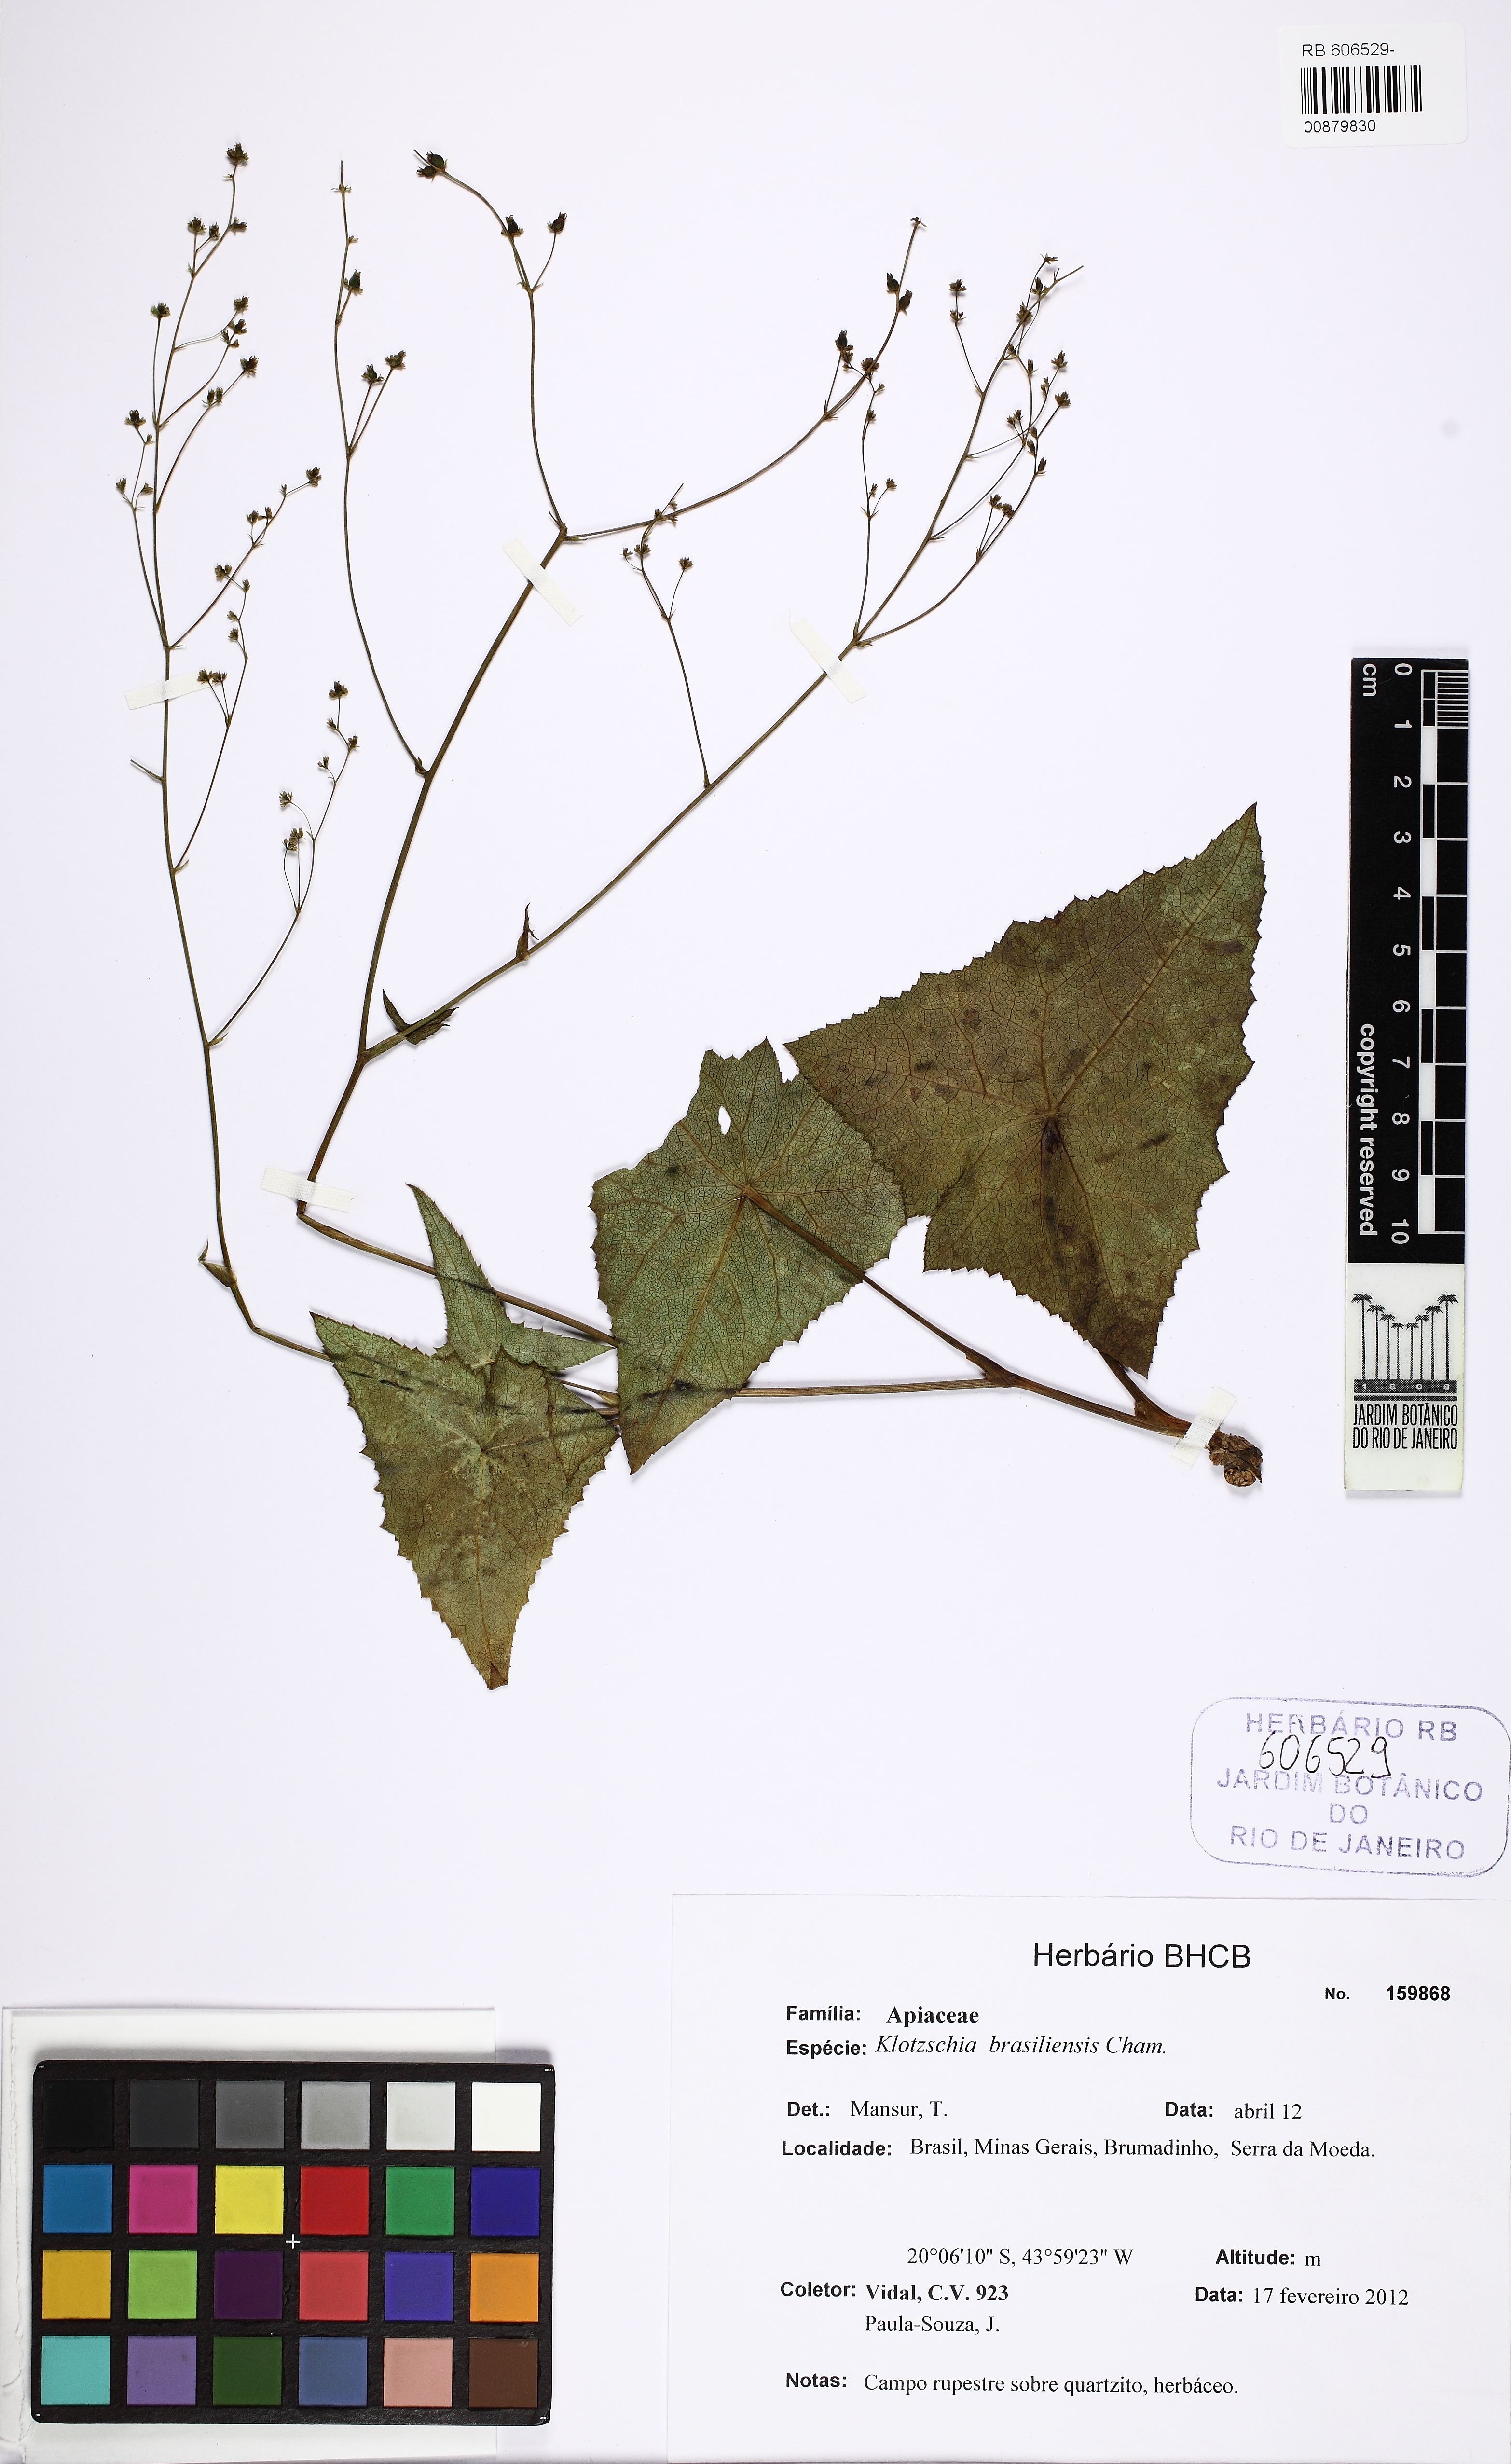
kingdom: Plantae
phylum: Tracheophyta
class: Magnoliopsida
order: Apiales
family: Apiaceae
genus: Klotzschia
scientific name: Klotzschia brasiliensis
